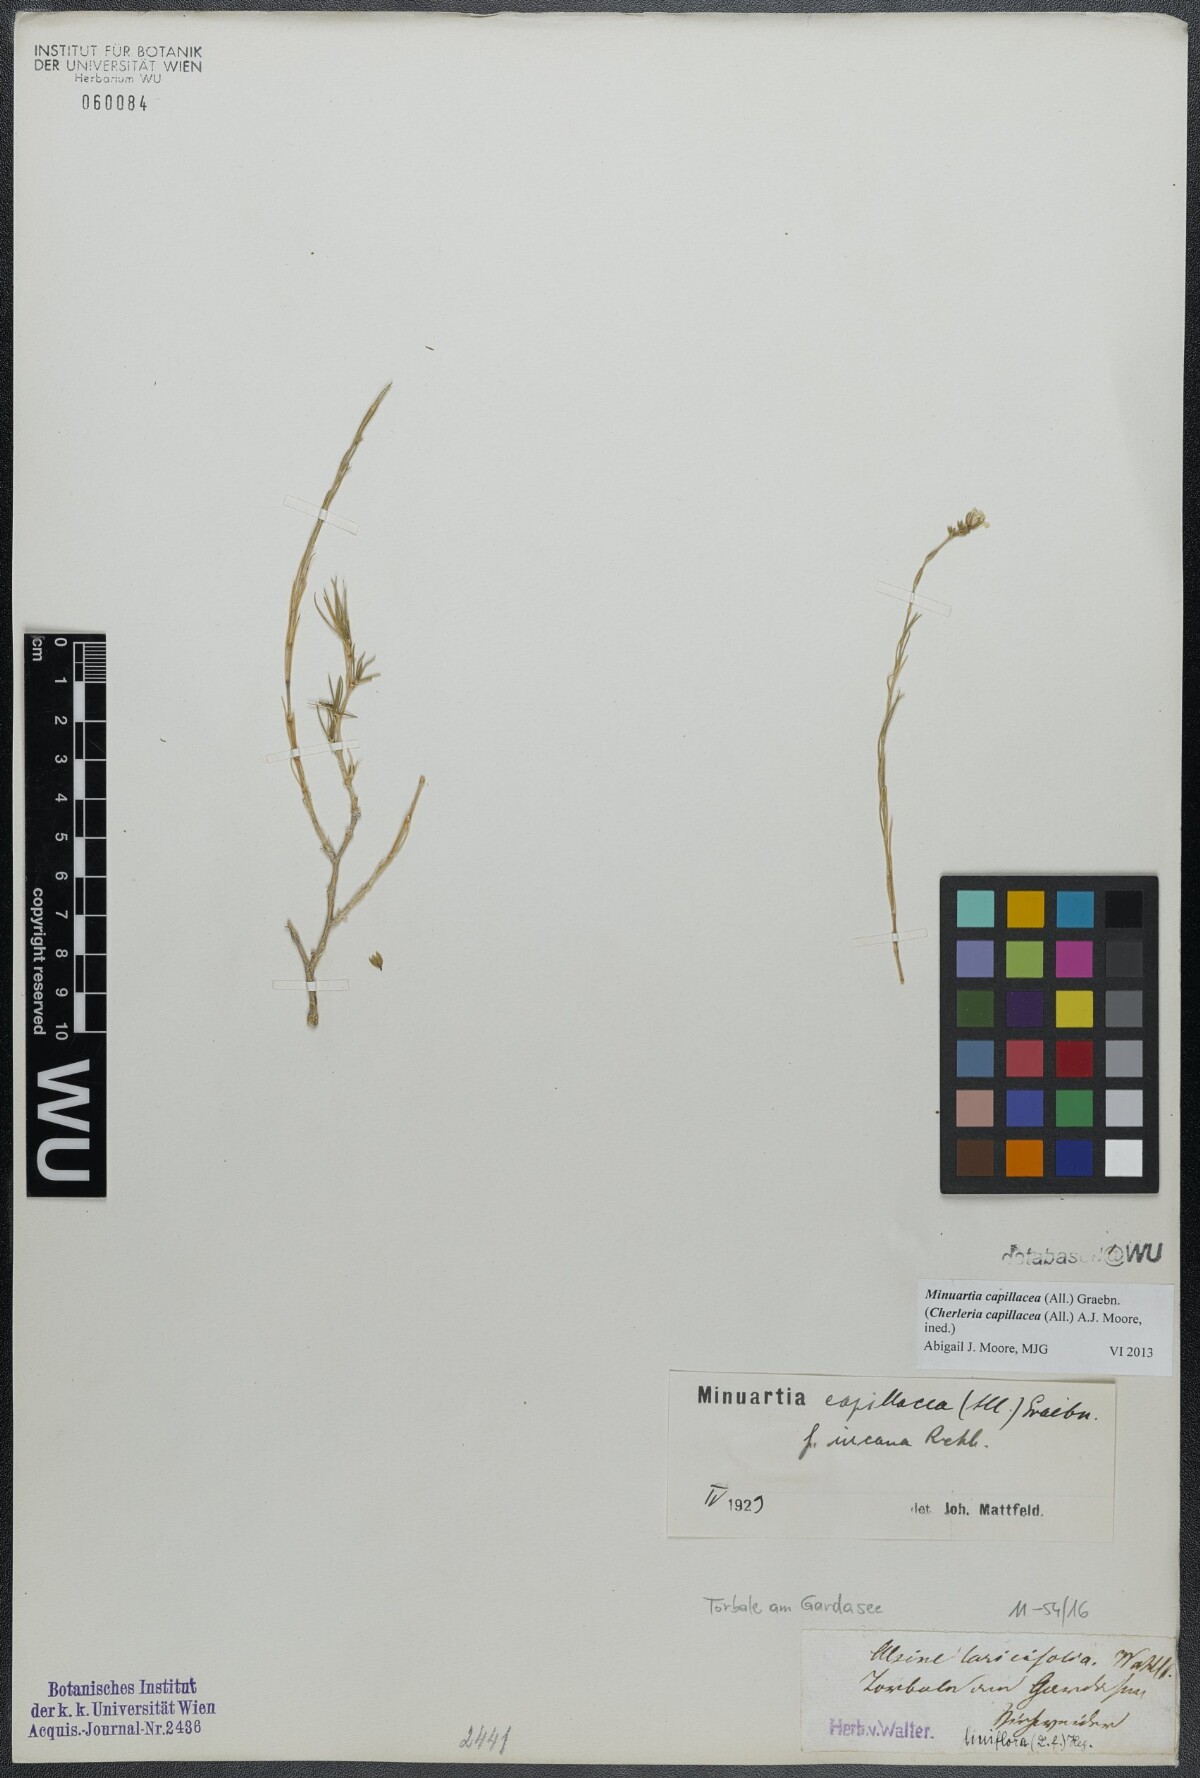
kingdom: Plantae
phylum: Tracheophyta
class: Magnoliopsida
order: Caryophyllales
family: Caryophyllaceae
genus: Cherleria
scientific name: Cherleria capillacea
